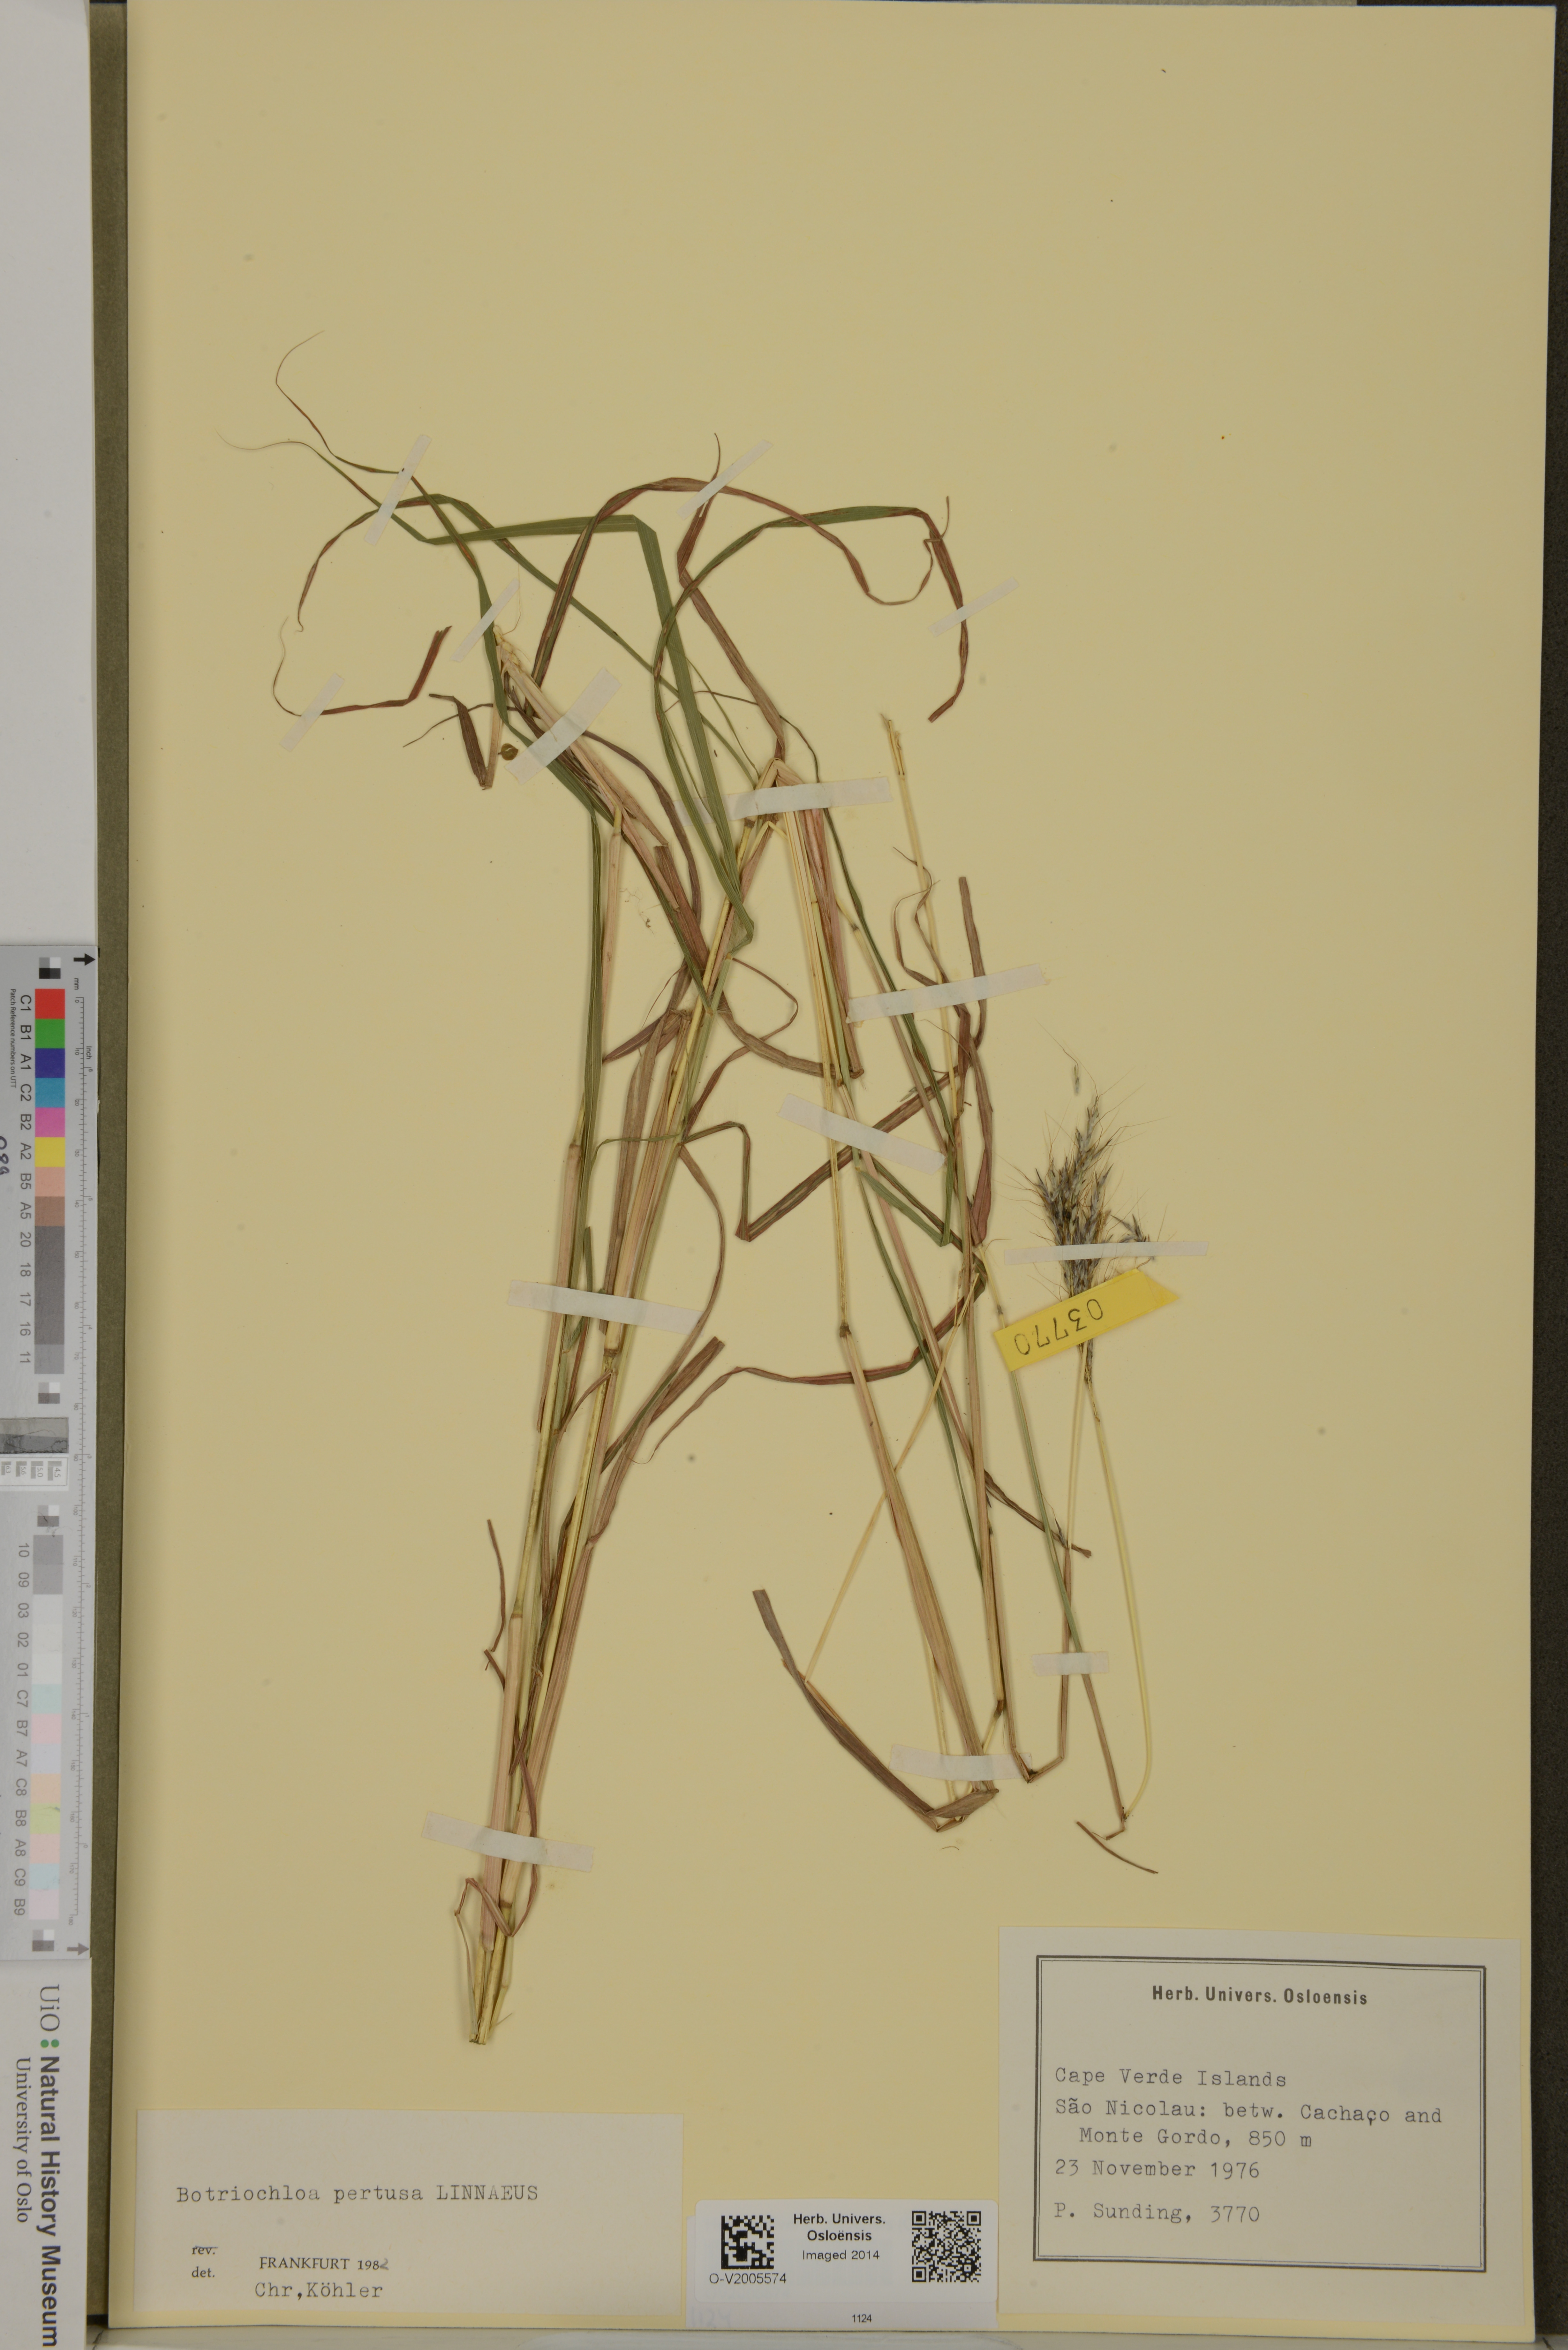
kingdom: Plantae
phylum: Tracheophyta
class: Liliopsida
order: Poales
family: Poaceae
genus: Bothriochloa
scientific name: Bothriochloa pertusa
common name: Pitted beardgrass
